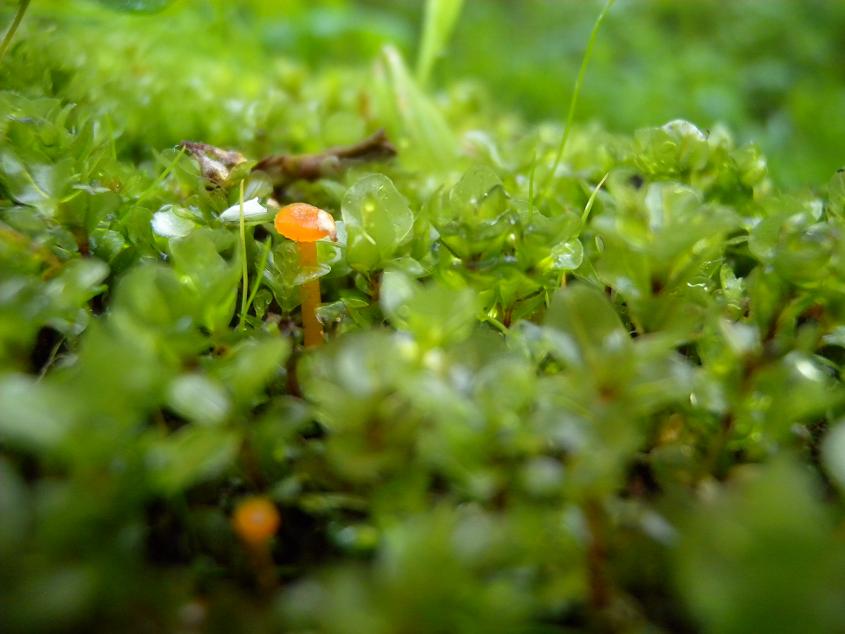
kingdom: Fungi
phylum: Basidiomycota
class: Agaricomycetes
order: Hymenochaetales
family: Rickenellaceae
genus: Rickenella
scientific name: Rickenella fibula
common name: orange mosnavlehat
